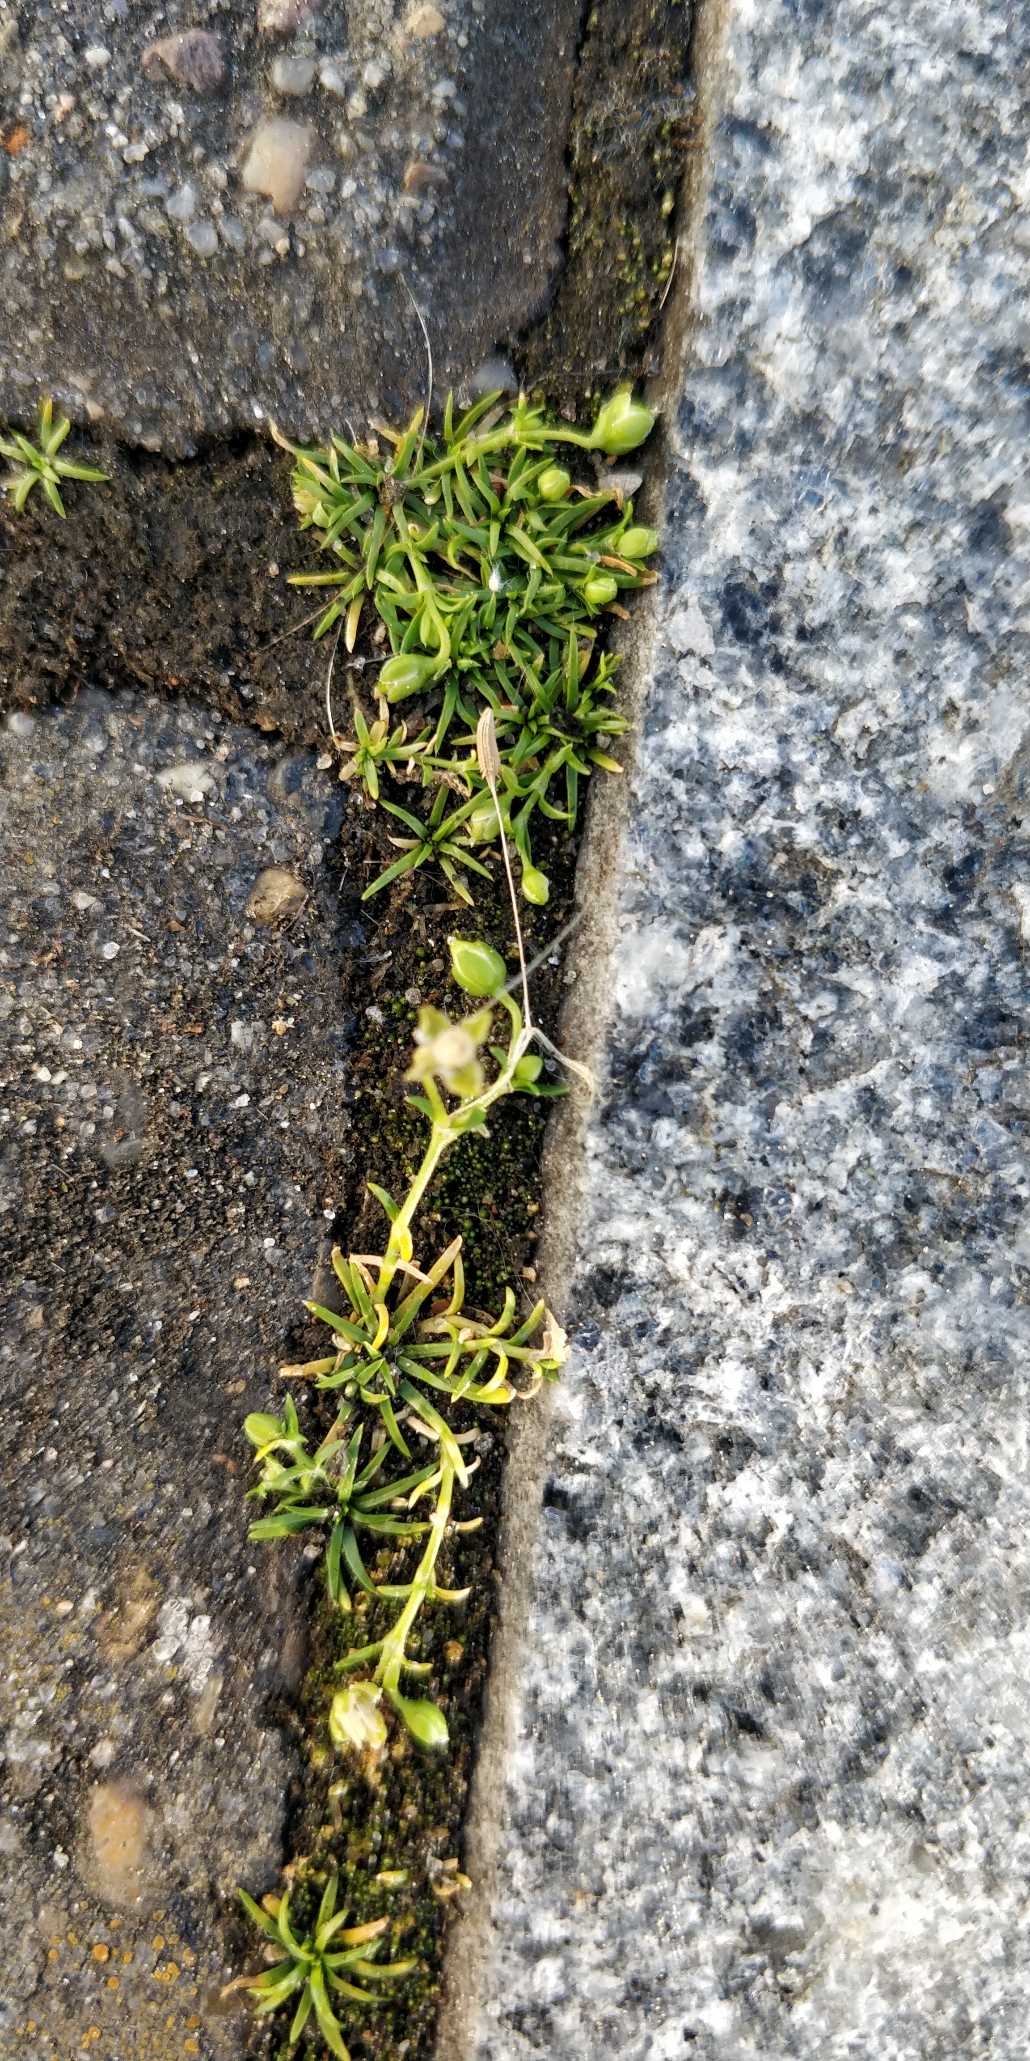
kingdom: Plantae
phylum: Tracheophyta
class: Magnoliopsida
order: Caryophyllales
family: Caryophyllaceae
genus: Sagina
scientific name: Sagina procumbens
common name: Almindelig firling
